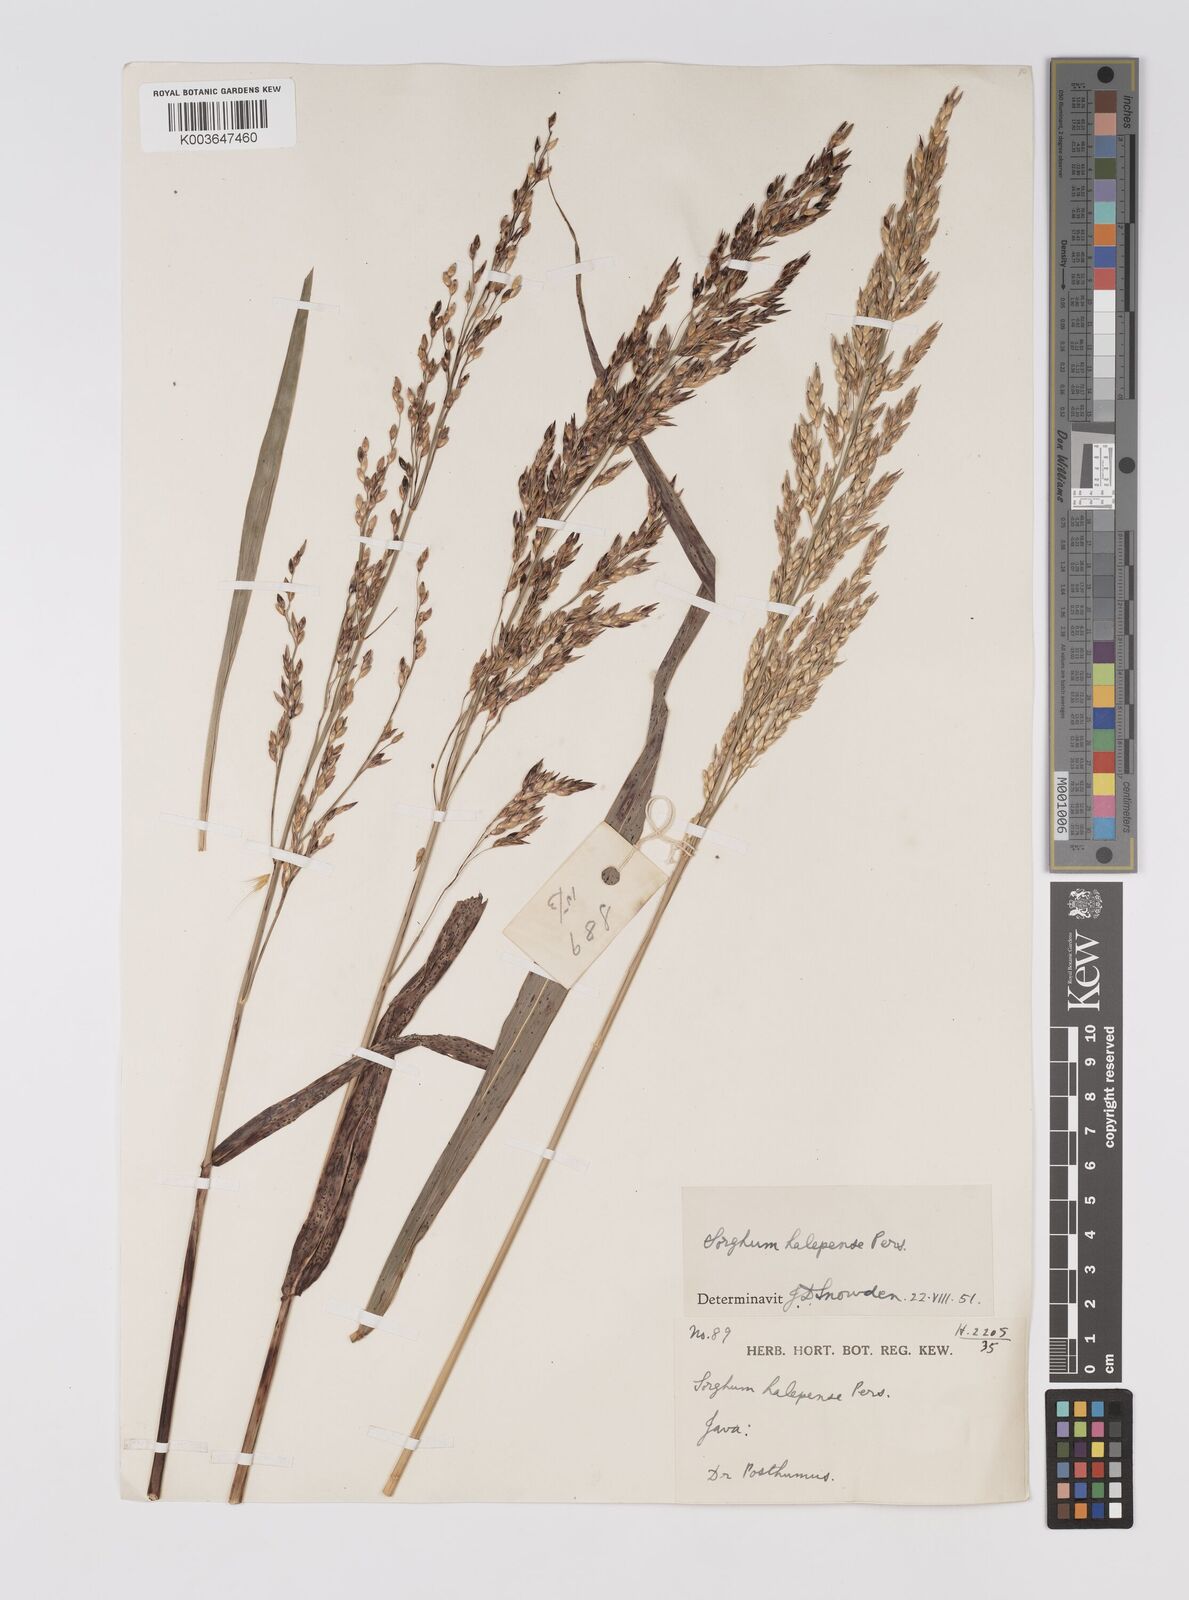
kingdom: Plantae
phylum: Tracheophyta
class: Liliopsida
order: Poales
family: Poaceae
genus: Sorghum
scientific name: Sorghum halepense
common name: Johnson-grass
